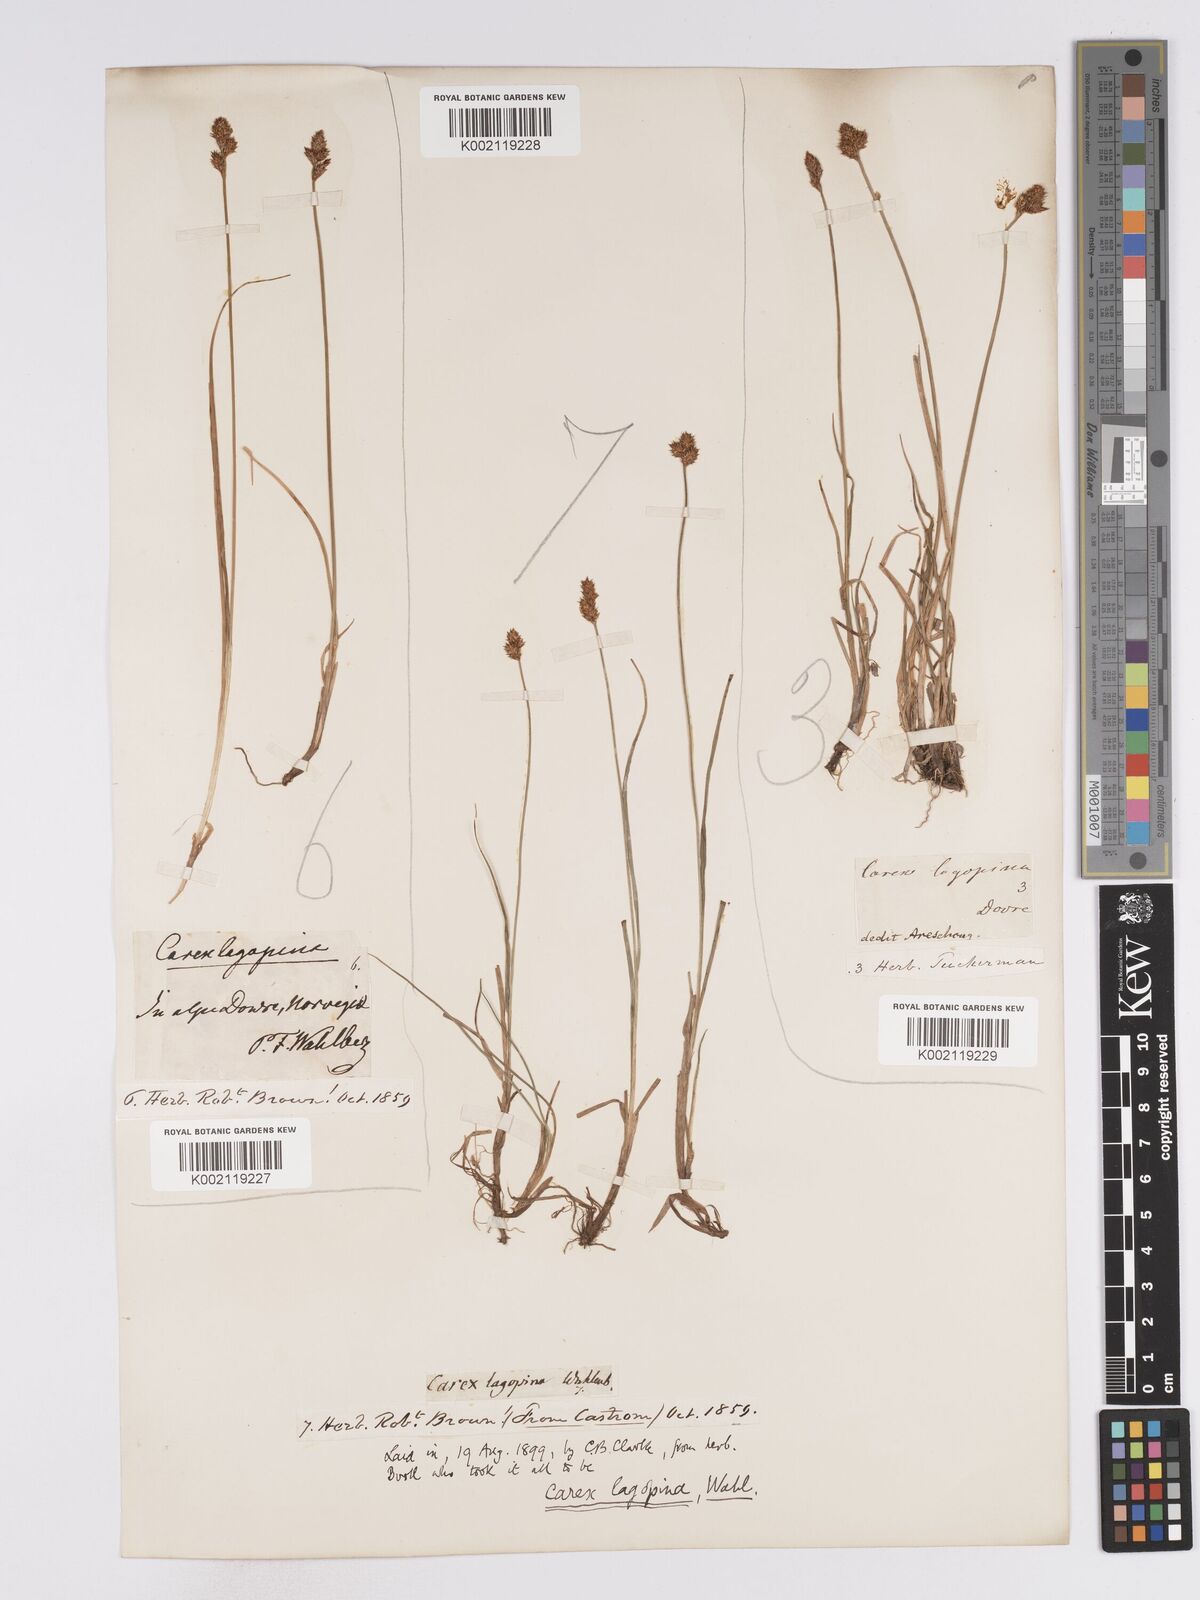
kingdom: Plantae
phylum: Tracheophyta
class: Liliopsida
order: Poales
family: Cyperaceae
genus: Carex
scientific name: Carex lachenalii
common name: Hare's-foot sedge
